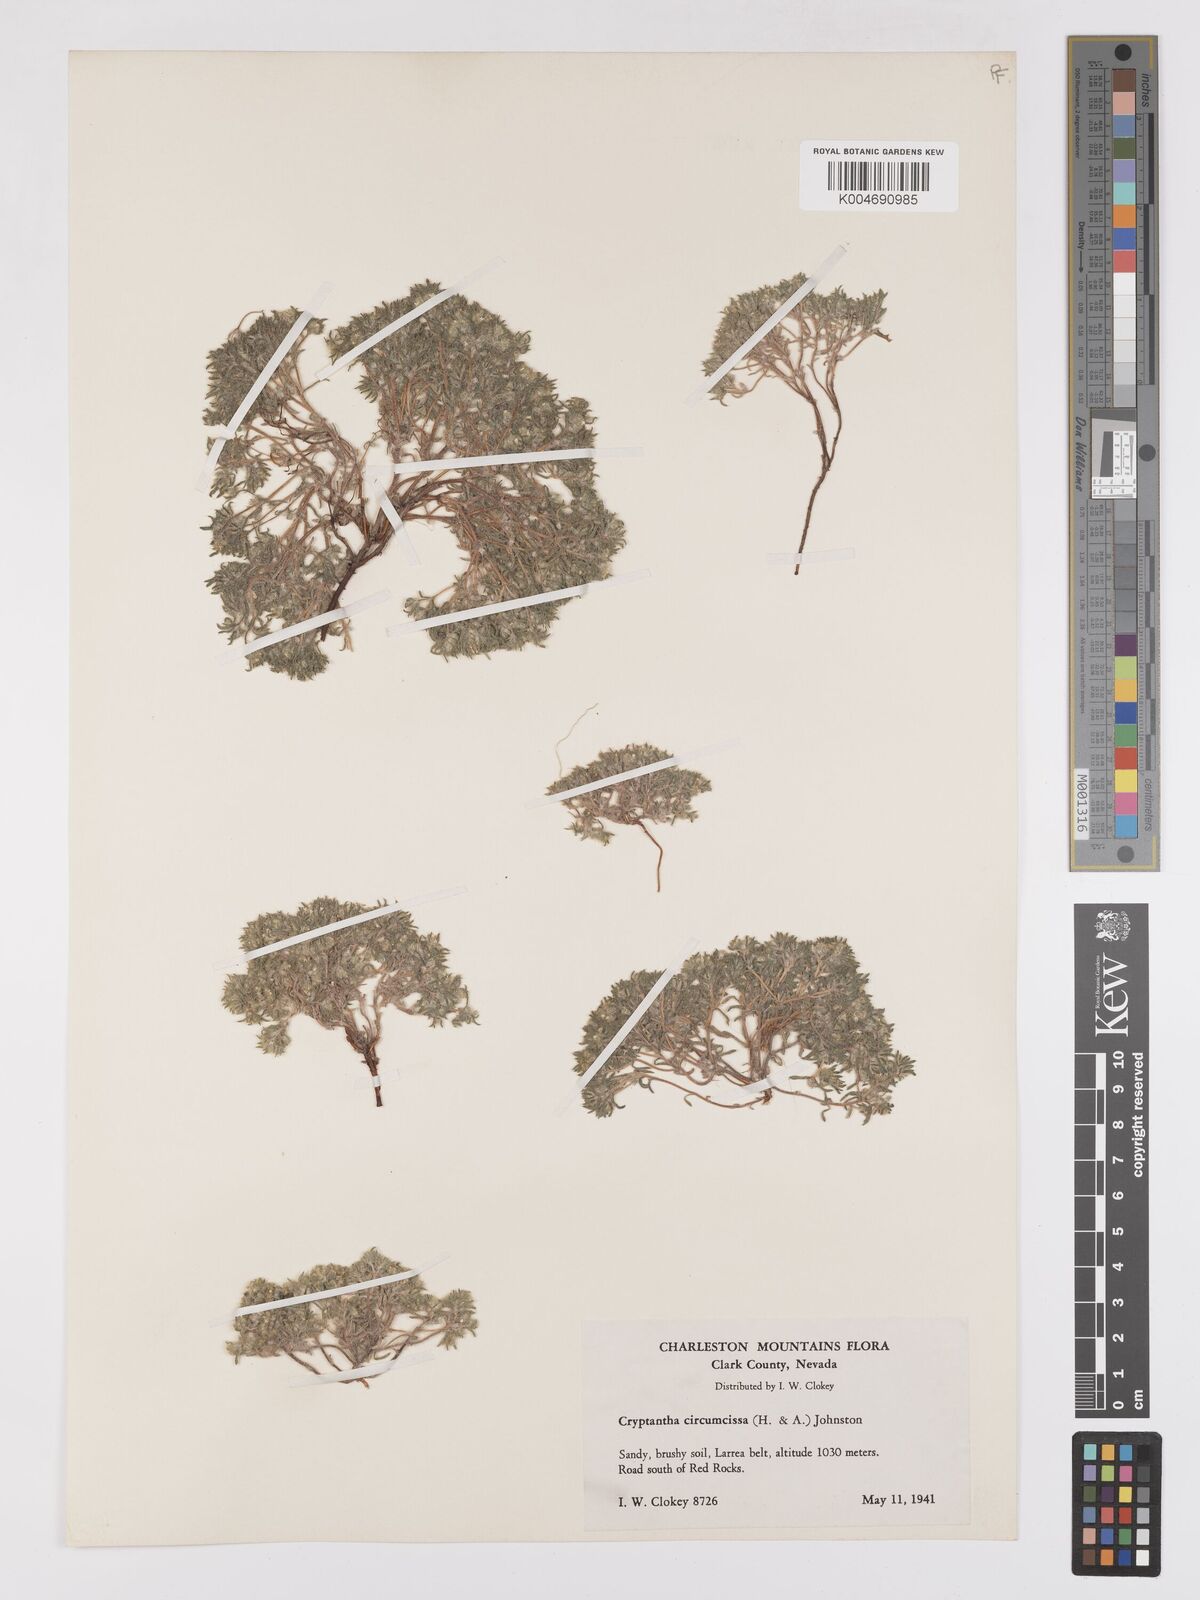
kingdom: Plantae
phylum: Tracheophyta
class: Magnoliopsida
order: Boraginales
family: Boraginaceae
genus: Greeneocharis
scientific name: Greeneocharis circumscissa
